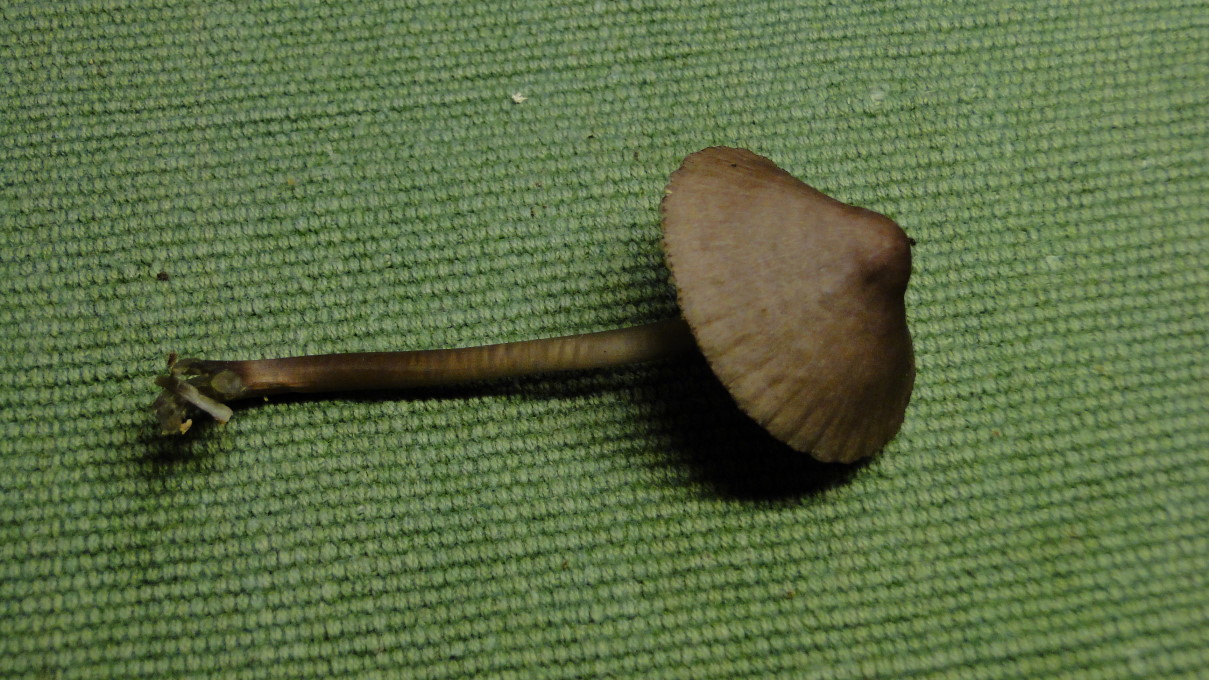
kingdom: Fungi
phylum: Basidiomycota
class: Agaricomycetes
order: Agaricales
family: Mycenaceae
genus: Mycena
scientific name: Mycena purpureofusca
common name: purpur-huesvamp
